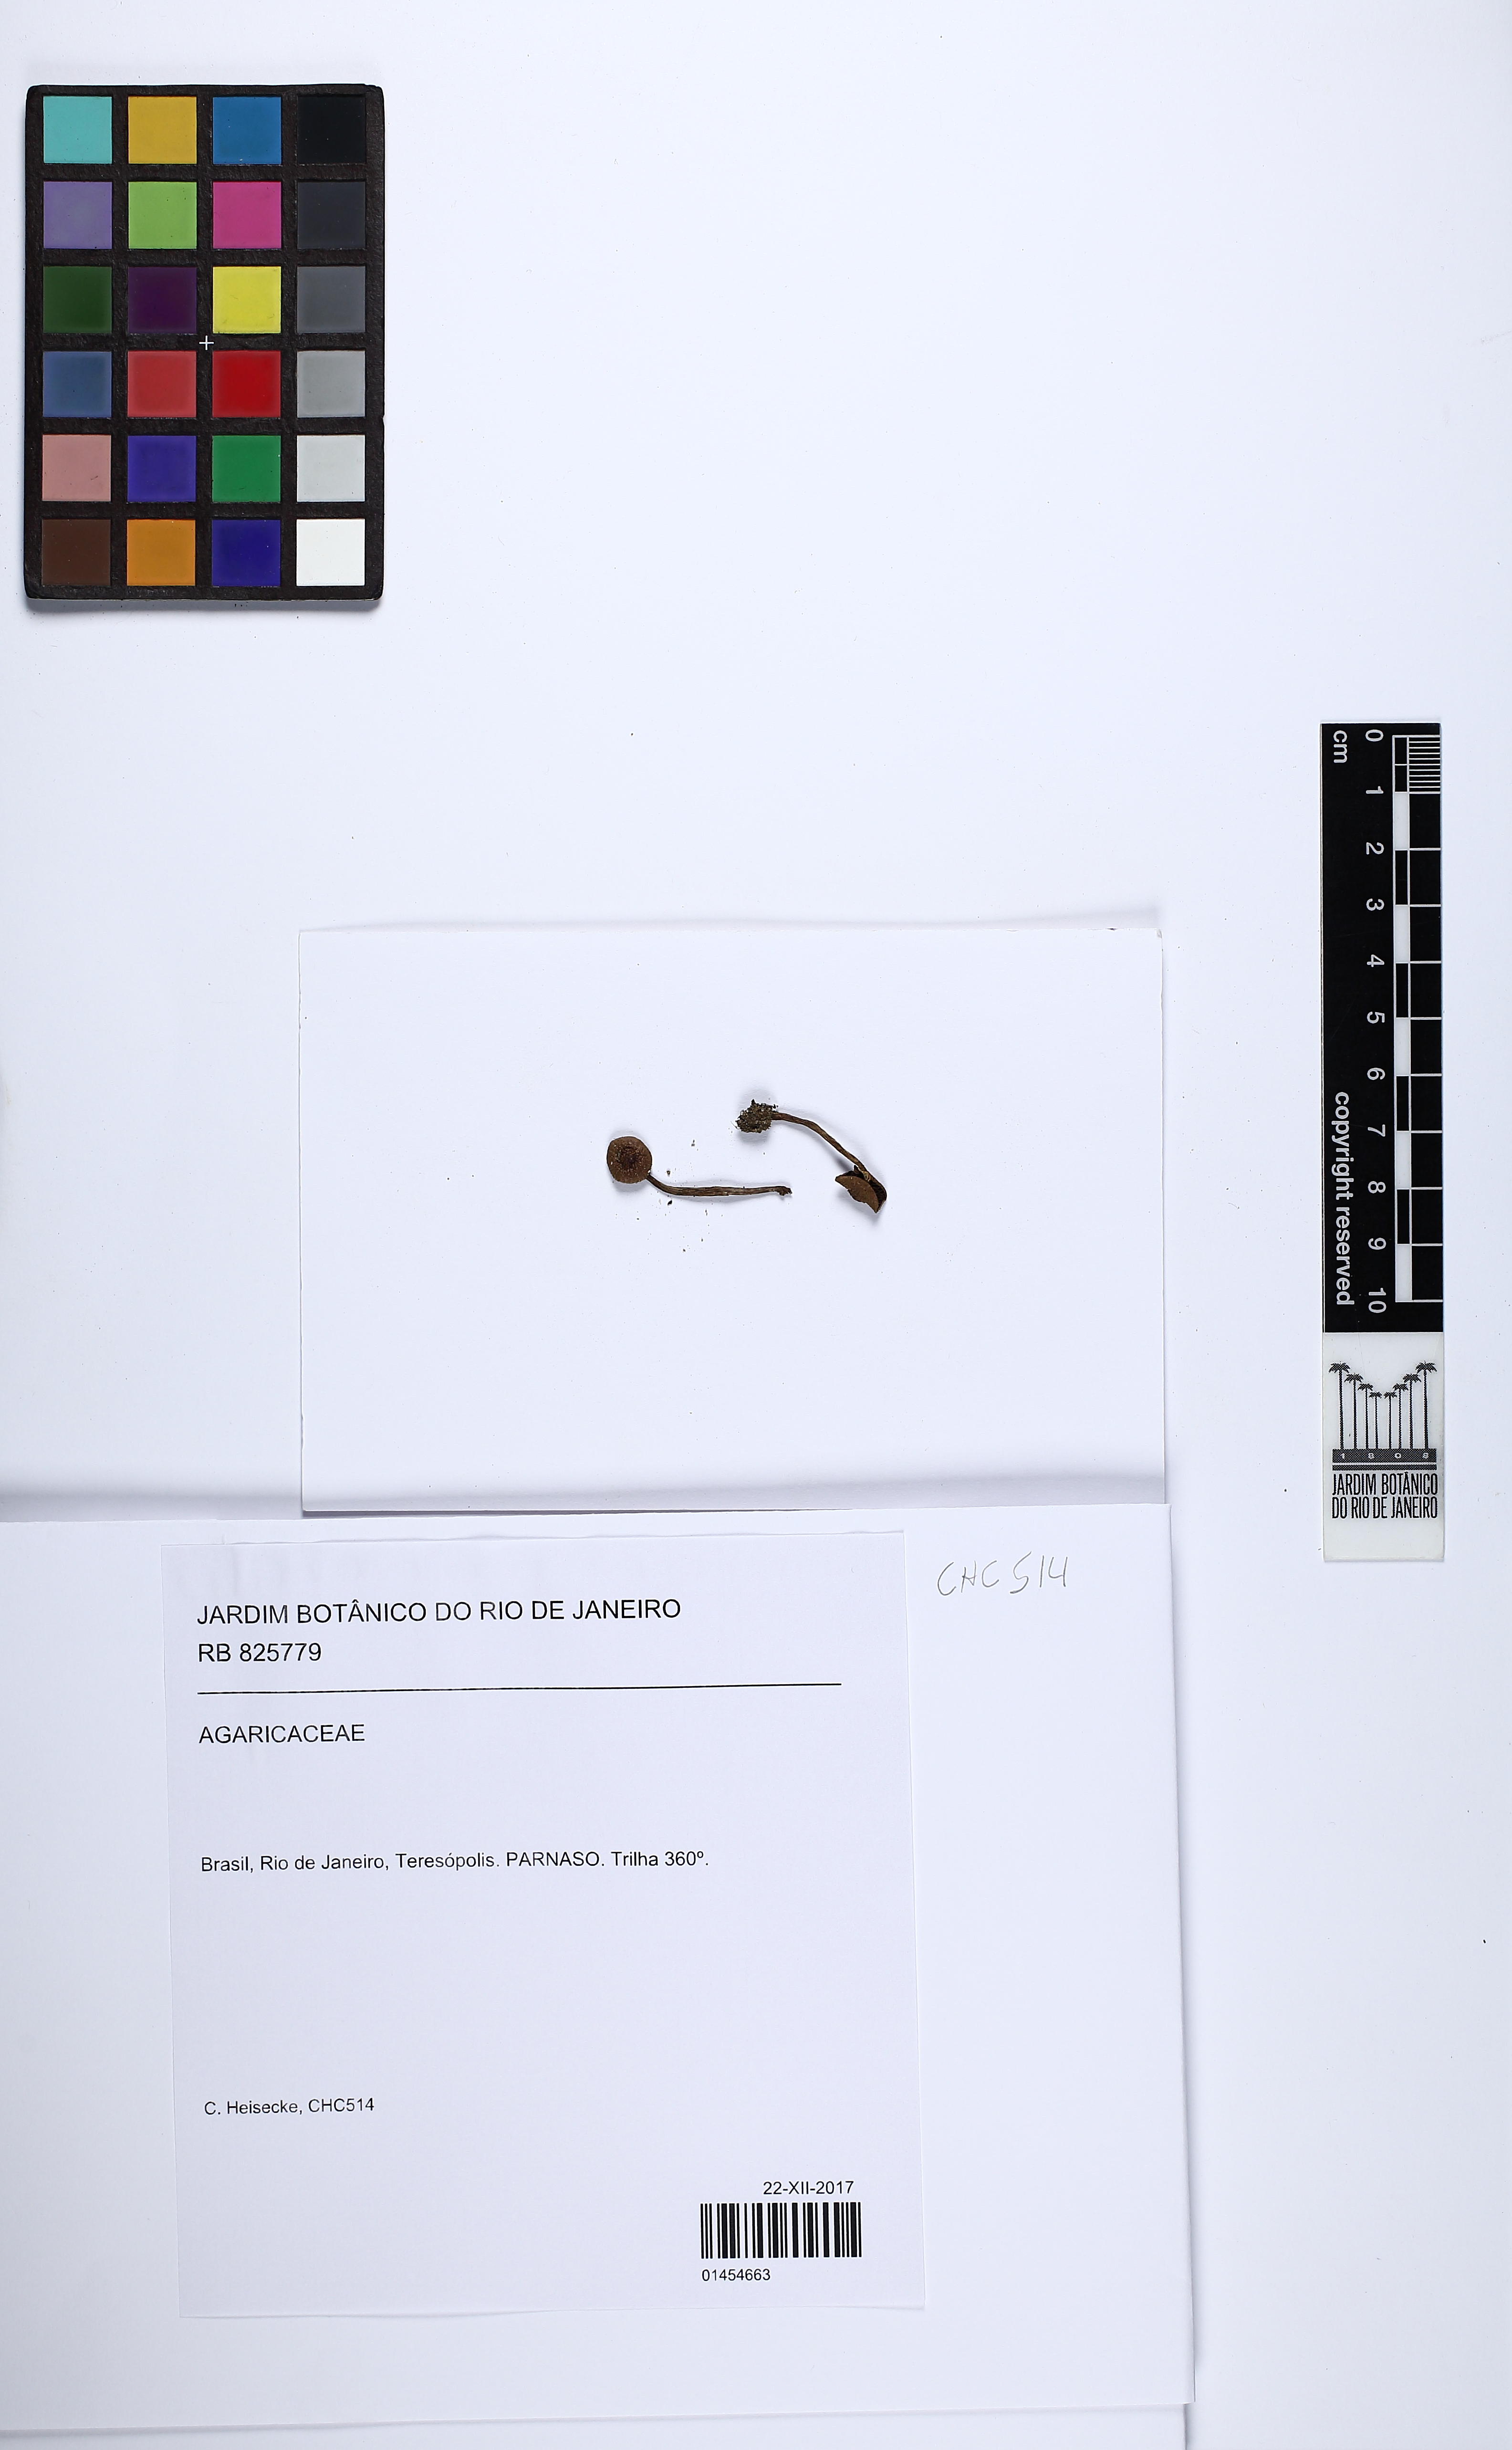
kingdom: Fungi
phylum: Basidiomycota
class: Agaricomycetes
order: Agaricales
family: Agaricaceae
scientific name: Agaricaceae
